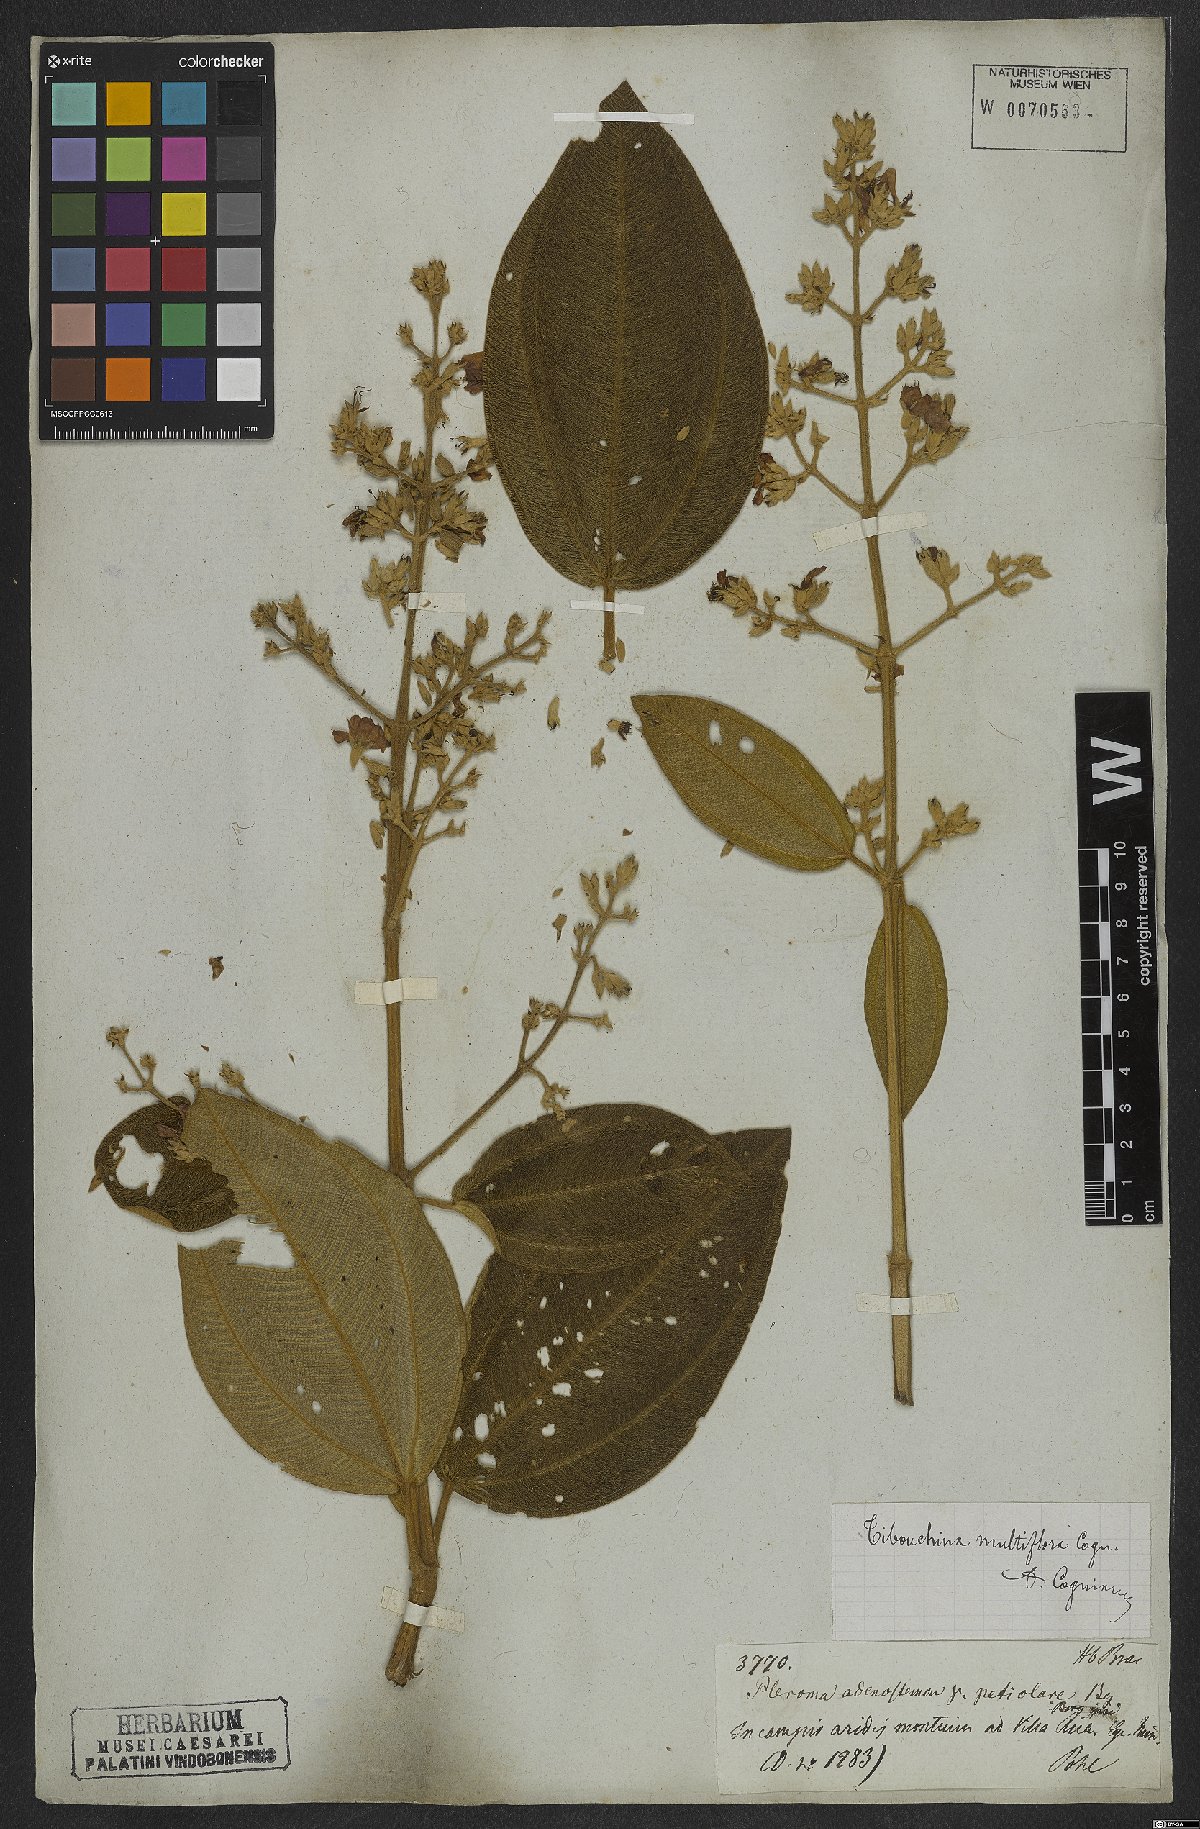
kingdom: Plantae
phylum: Tracheophyta
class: Magnoliopsida
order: Myrtales
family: Melastomataceae
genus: Pleroma
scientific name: Pleroma heteromallum
